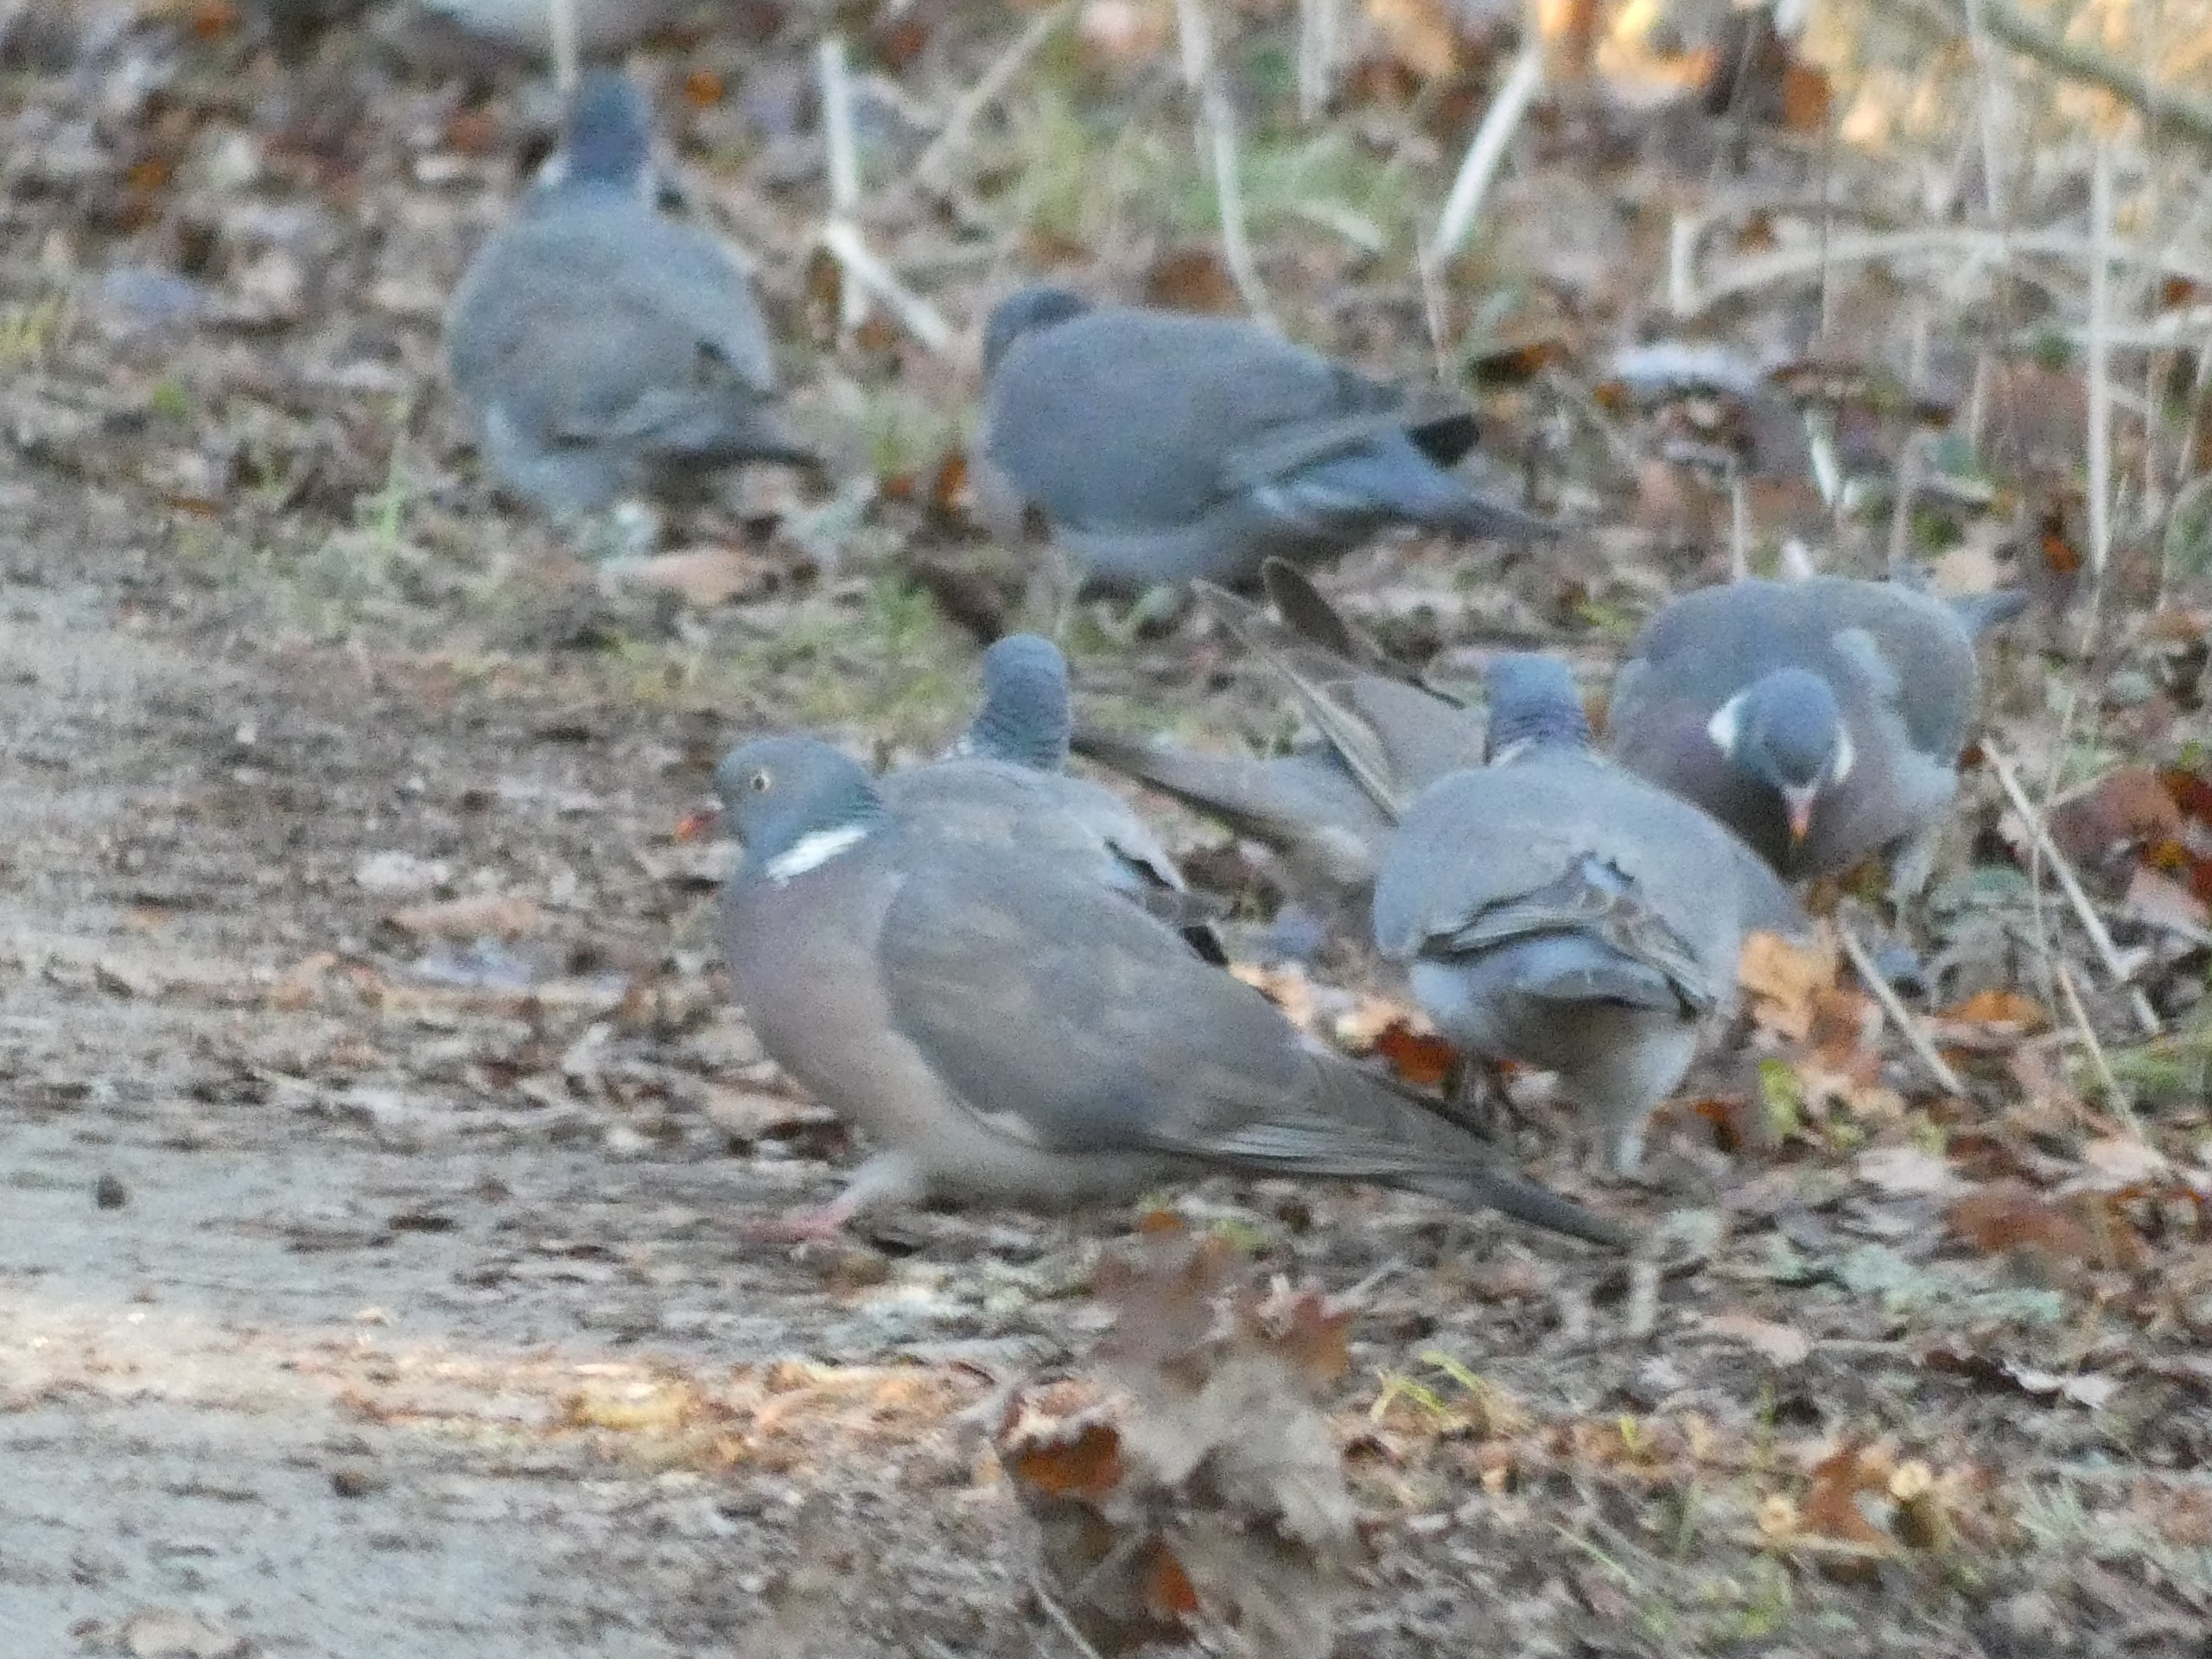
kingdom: Animalia
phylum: Chordata
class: Aves
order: Columbiformes
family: Columbidae
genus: Columba
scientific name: Columba palumbus
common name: Ringdue
